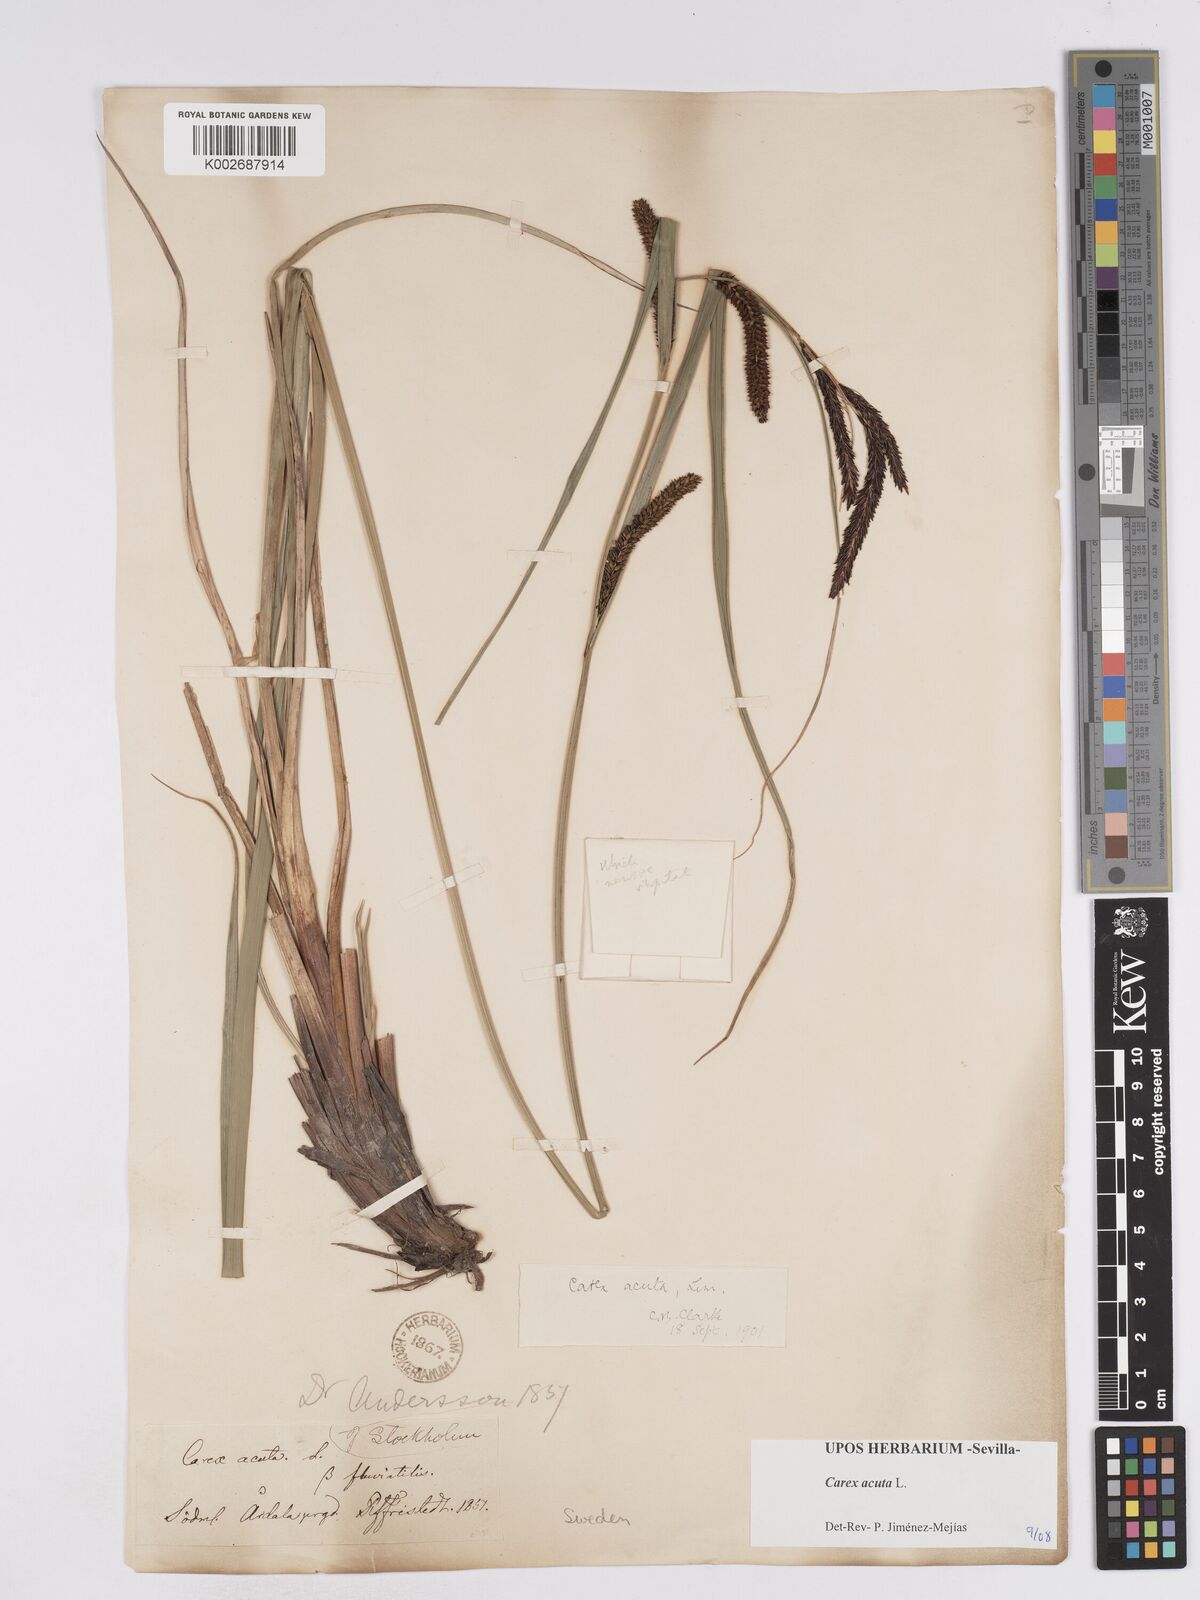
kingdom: Plantae
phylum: Tracheophyta
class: Liliopsida
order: Poales
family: Cyperaceae
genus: Carex
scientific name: Carex acuta
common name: Slender tufted-sedge
